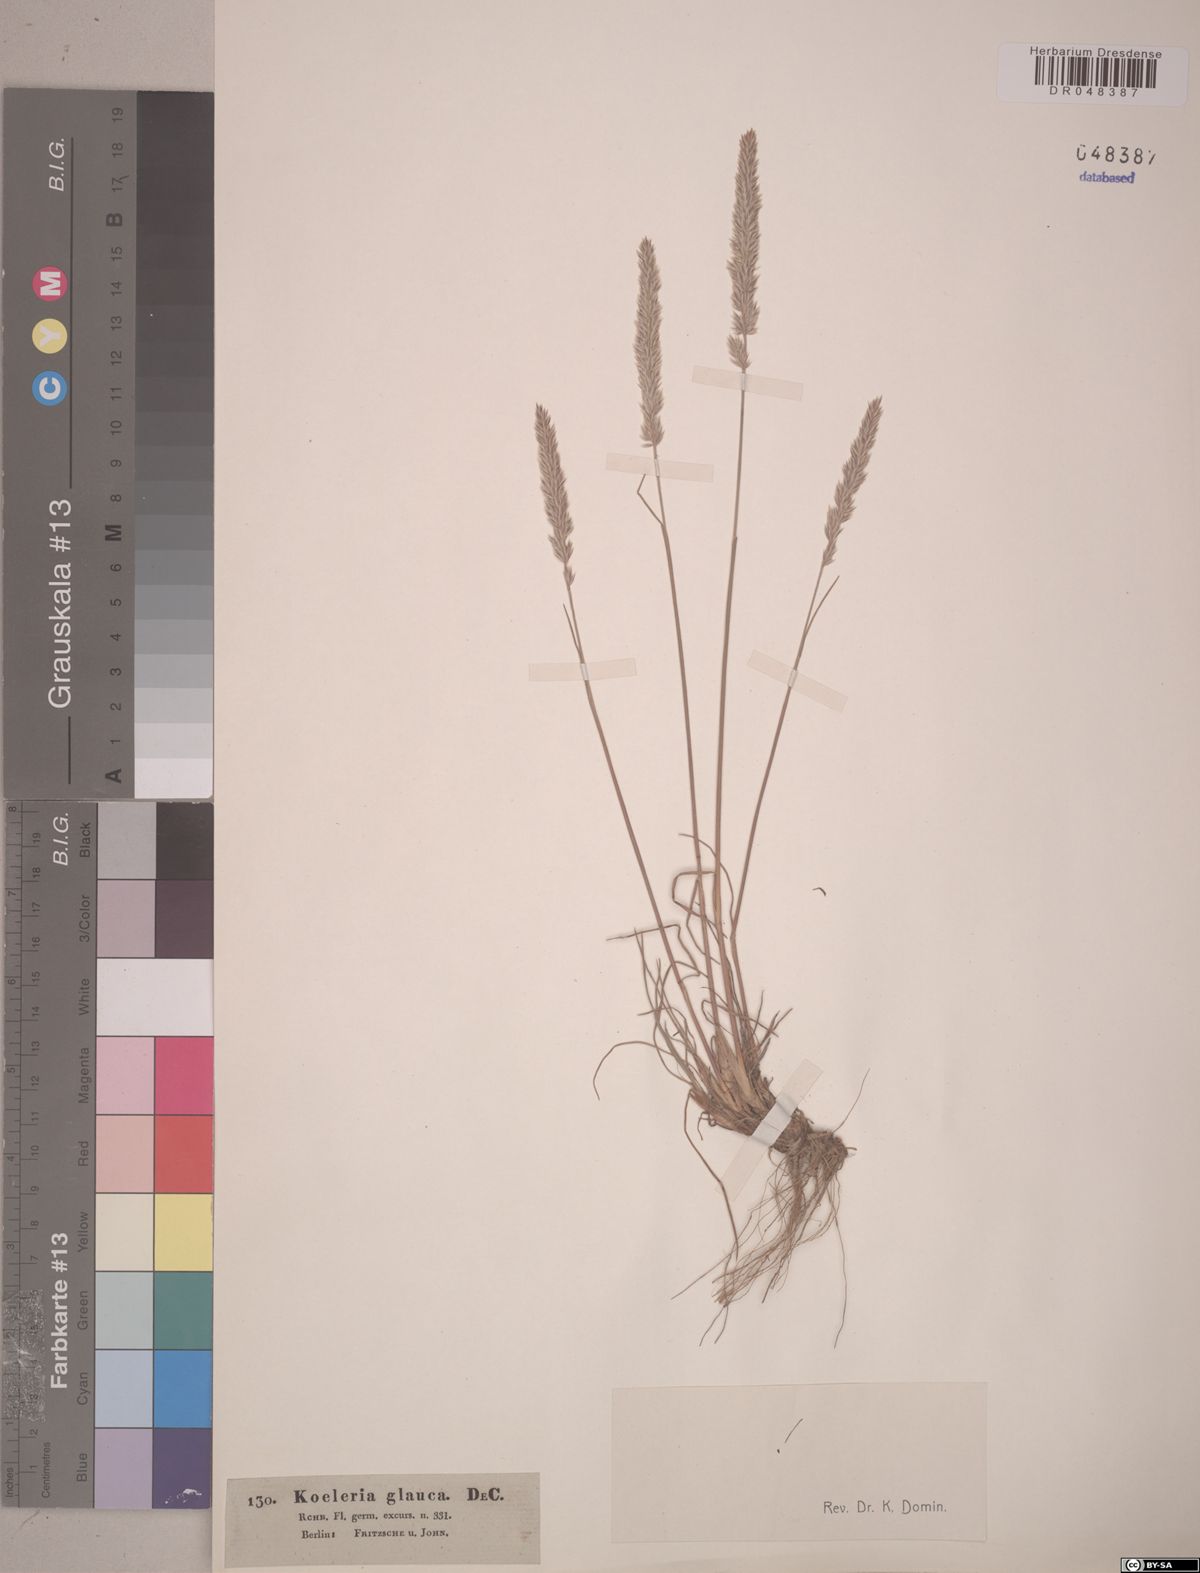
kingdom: Plantae
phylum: Tracheophyta
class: Liliopsida
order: Poales
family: Poaceae
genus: Koeleria
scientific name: Koeleria glauca
